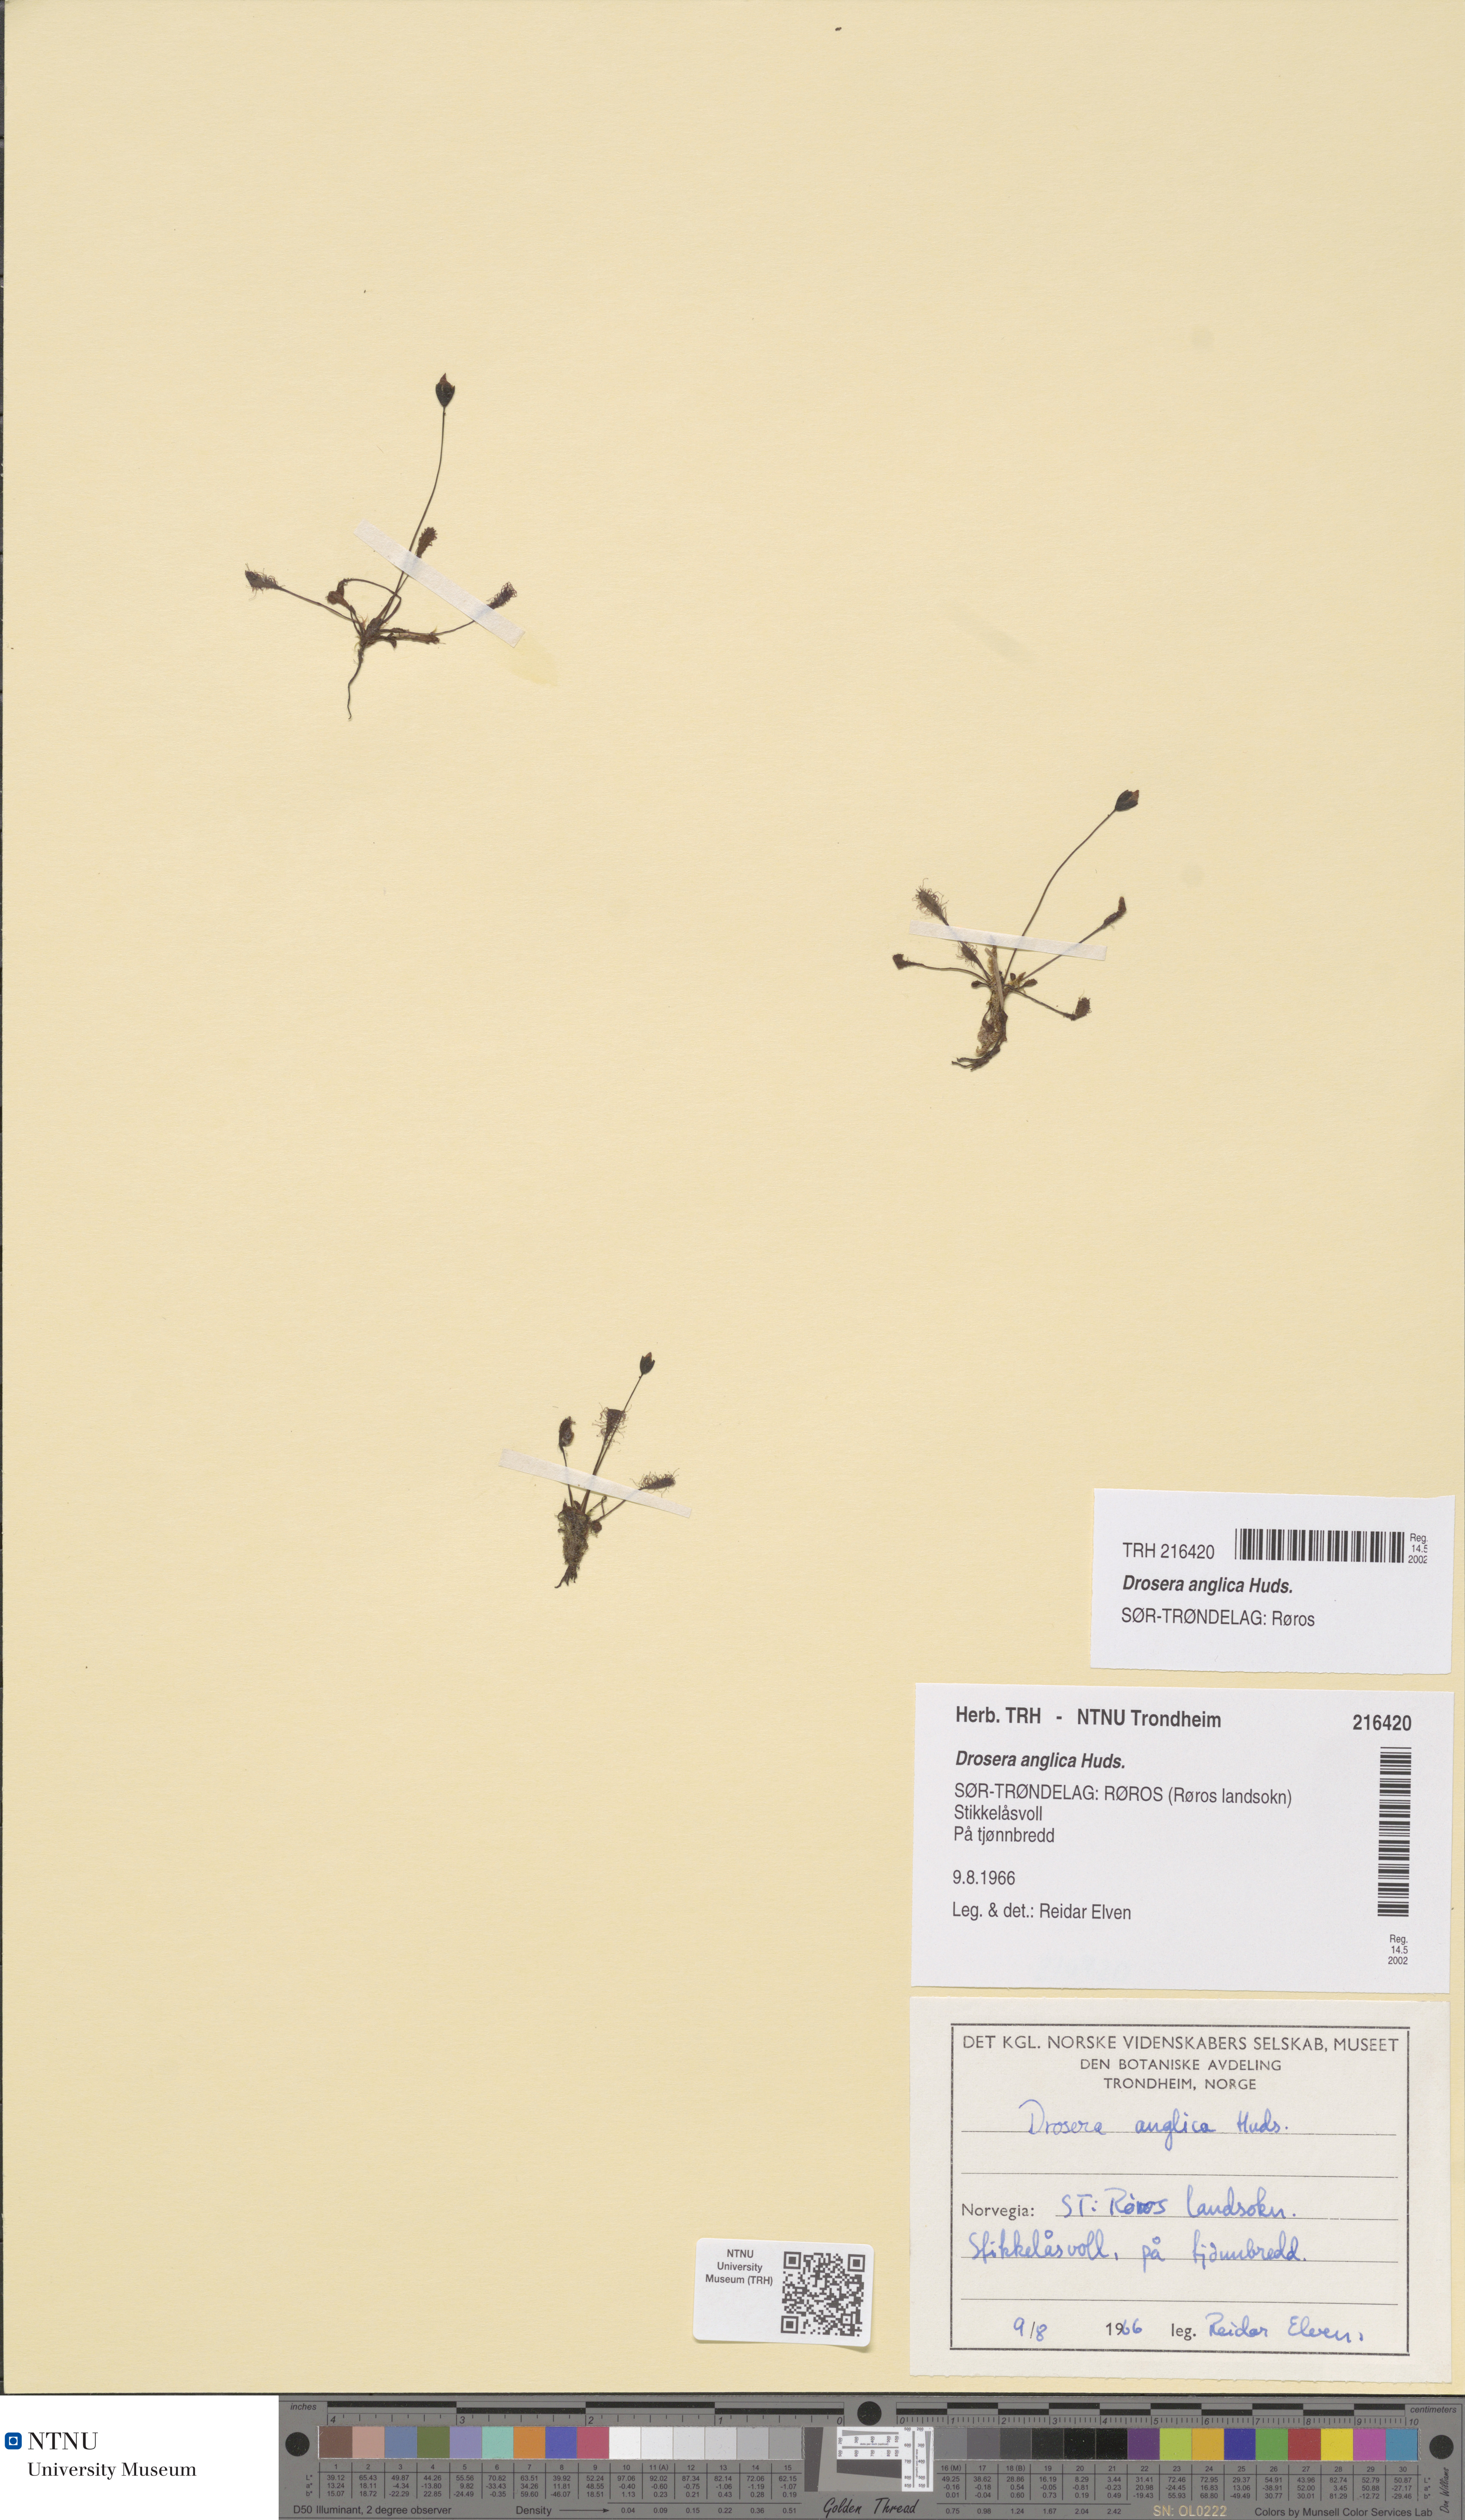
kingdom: Plantae
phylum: Tracheophyta
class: Magnoliopsida
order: Caryophyllales
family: Droseraceae
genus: Drosera
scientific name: Drosera anglica
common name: Great sundew
